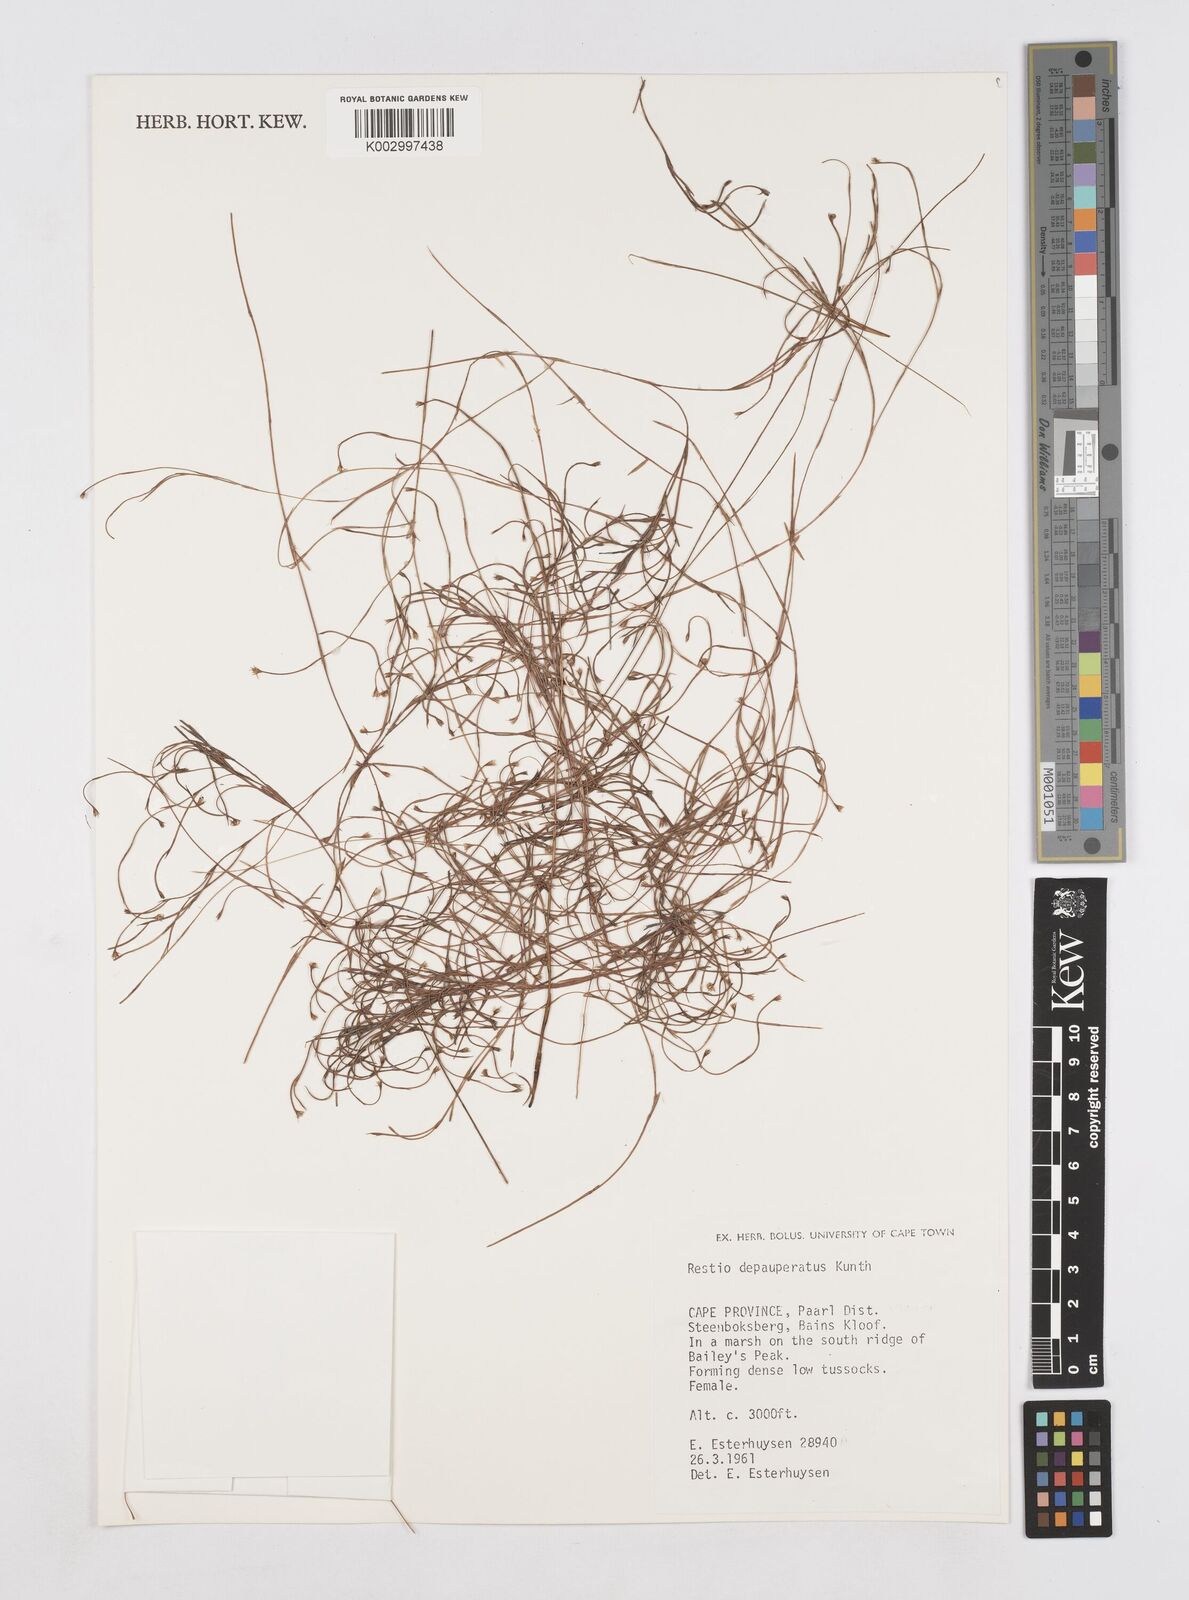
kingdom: Plantae
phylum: Tracheophyta
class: Liliopsida
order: Poales
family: Restionaceae
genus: Platycaulos
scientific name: Platycaulos depauperatus
